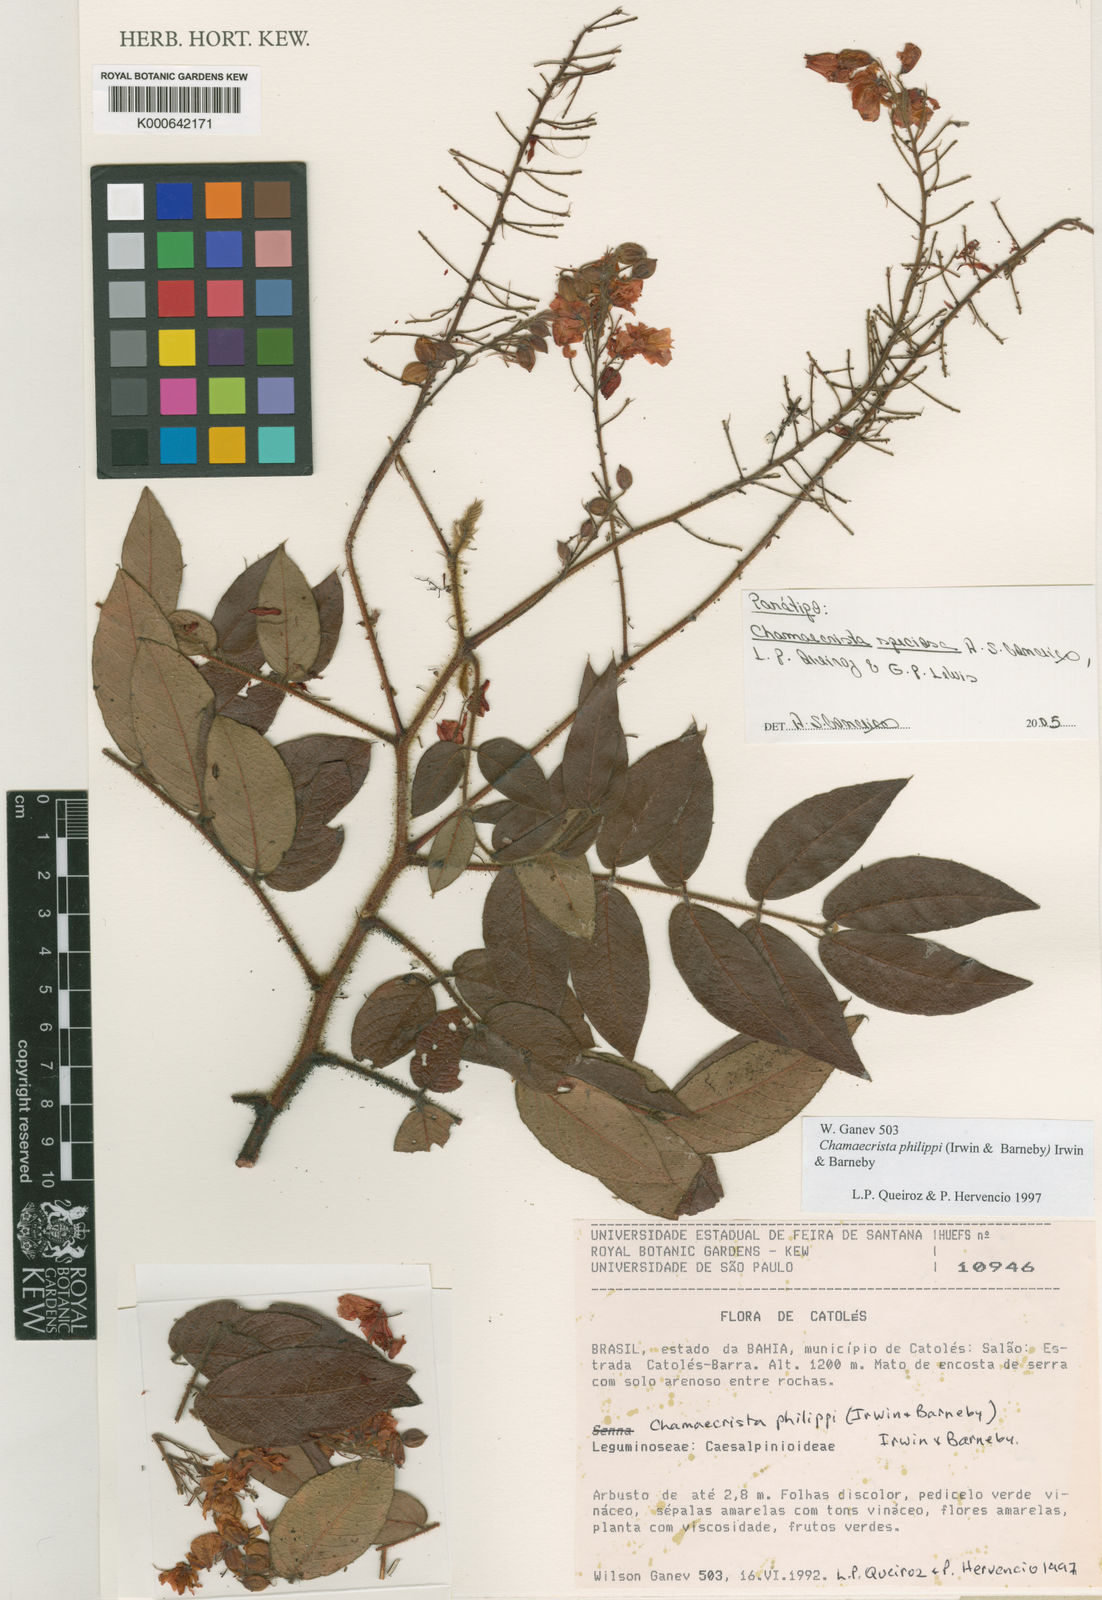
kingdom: Plantae
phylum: Tracheophyta
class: Magnoliopsida
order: Fabales
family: Fabaceae
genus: Chamaecrista
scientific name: Chamaecrista
